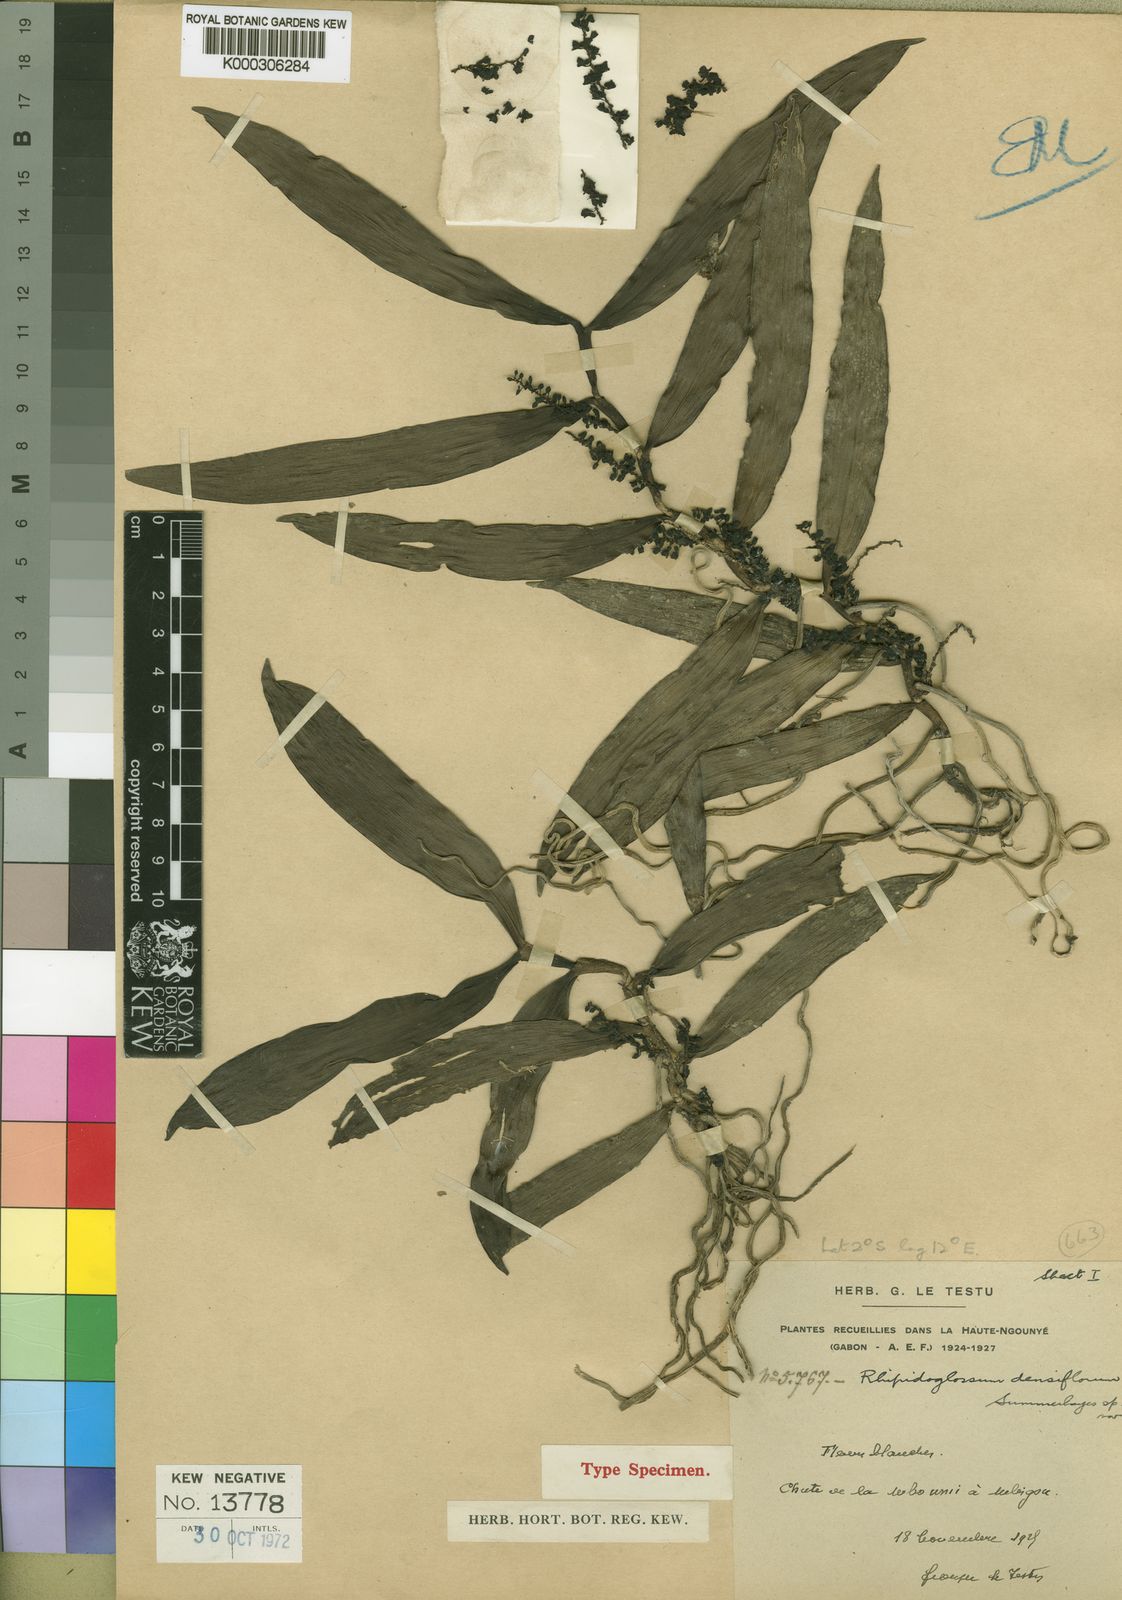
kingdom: Plantae
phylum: Tracheophyta
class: Liliopsida
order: Asparagales
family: Orchidaceae
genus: Rhipidoglossum
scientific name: Rhipidoglossum densiflorum
